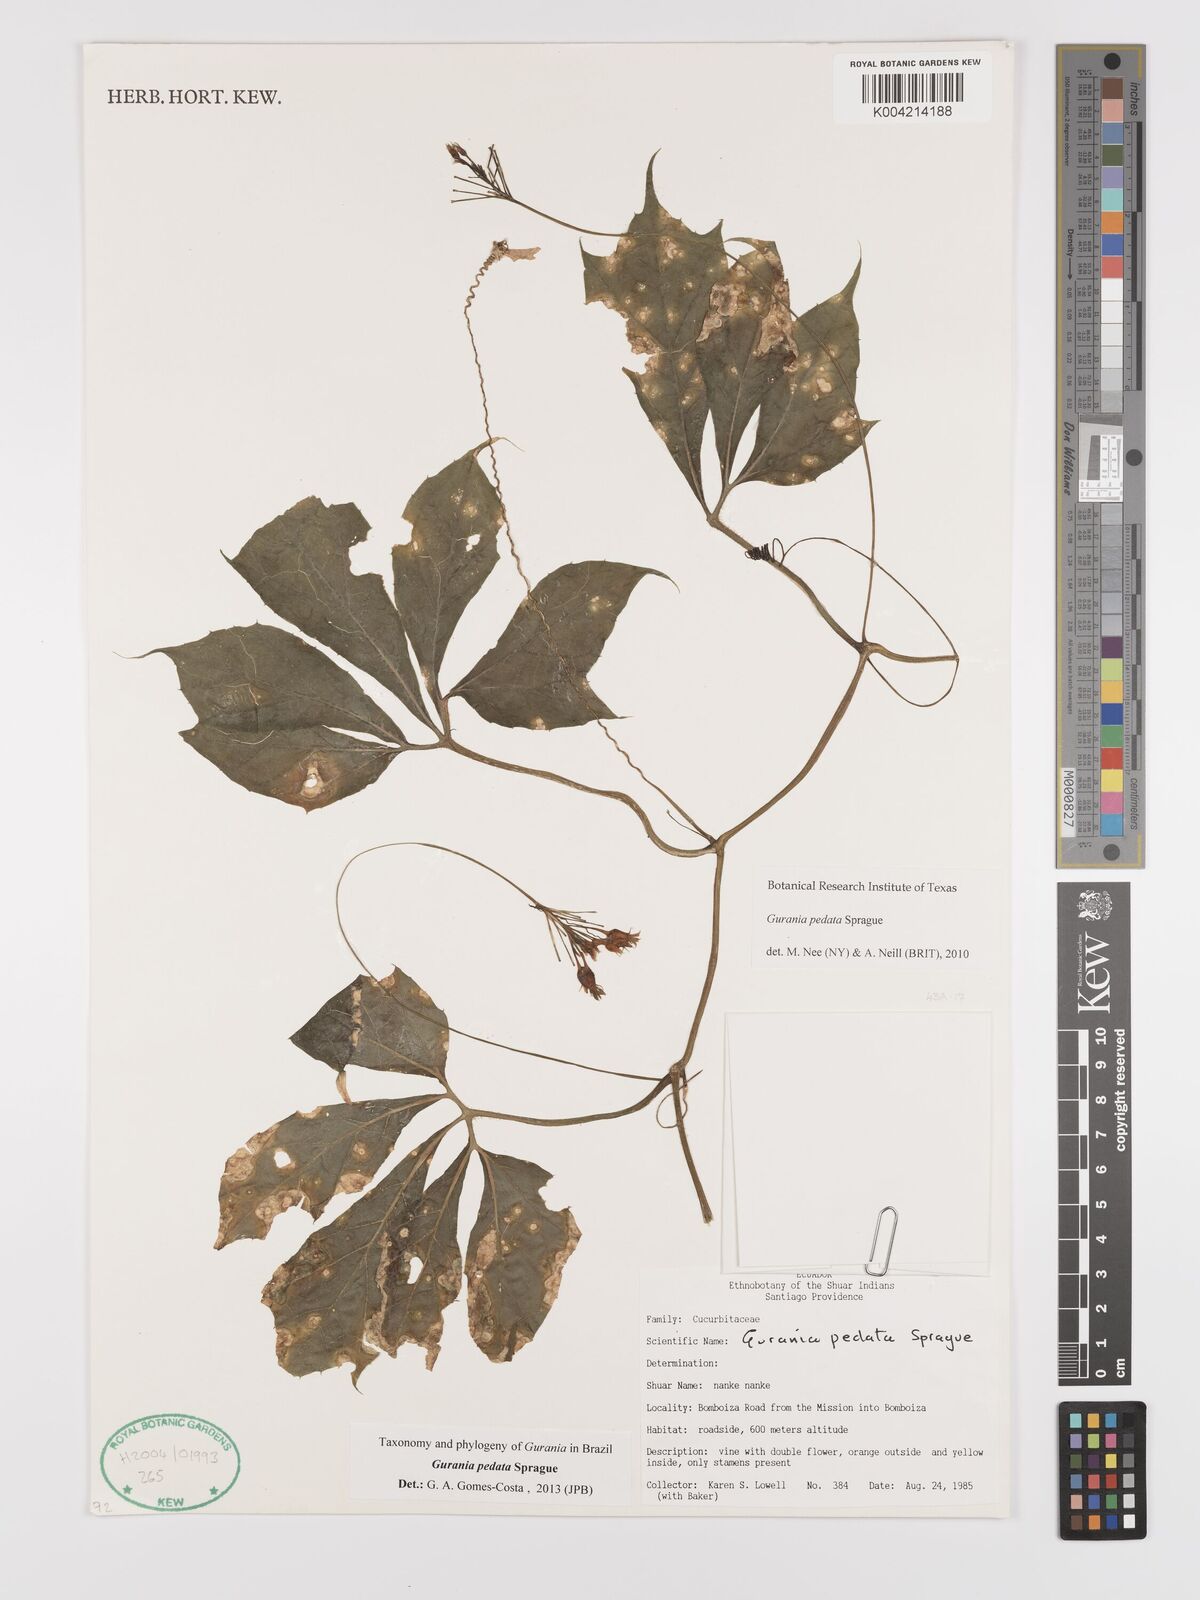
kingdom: Plantae
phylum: Tracheophyta
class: Magnoliopsida
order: Cucurbitales
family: Cucurbitaceae
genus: Gurania
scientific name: Gurania pedata
